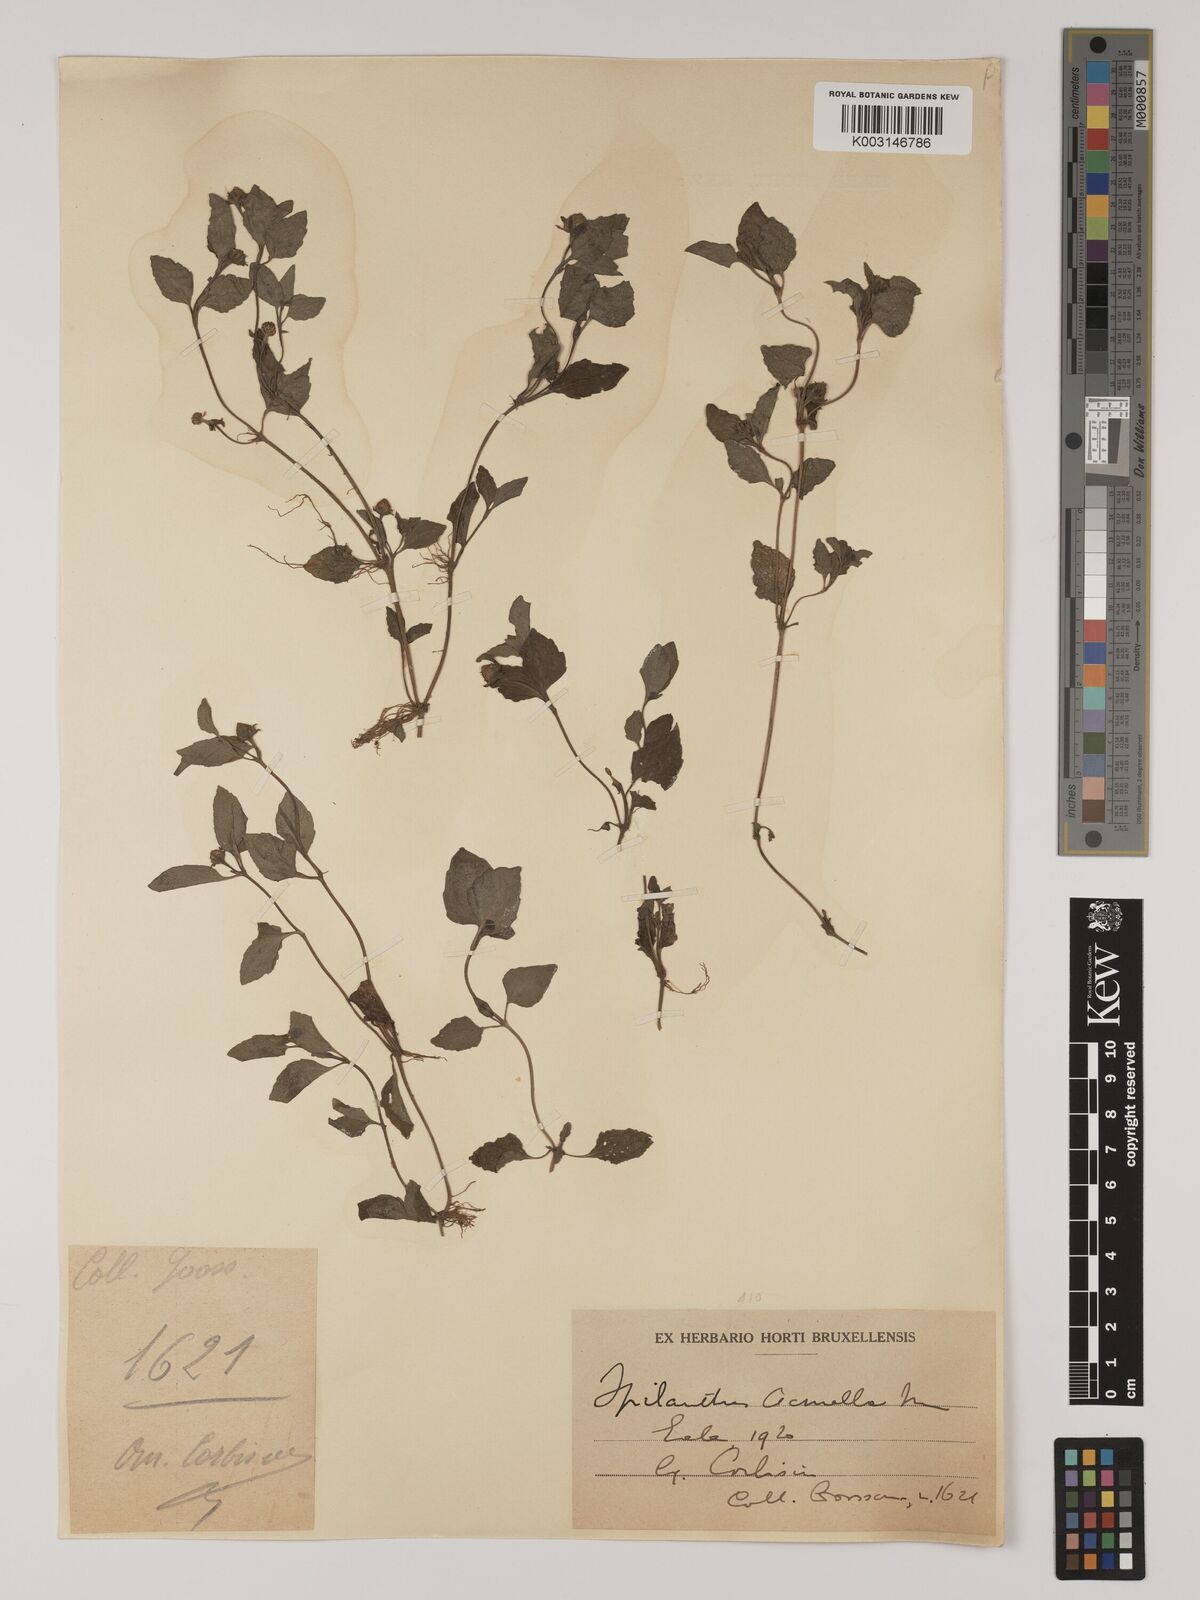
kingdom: Plantae
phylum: Tracheophyta
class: Magnoliopsida
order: Asterales
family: Asteraceae
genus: Acmella
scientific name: Acmella caulirhiza
